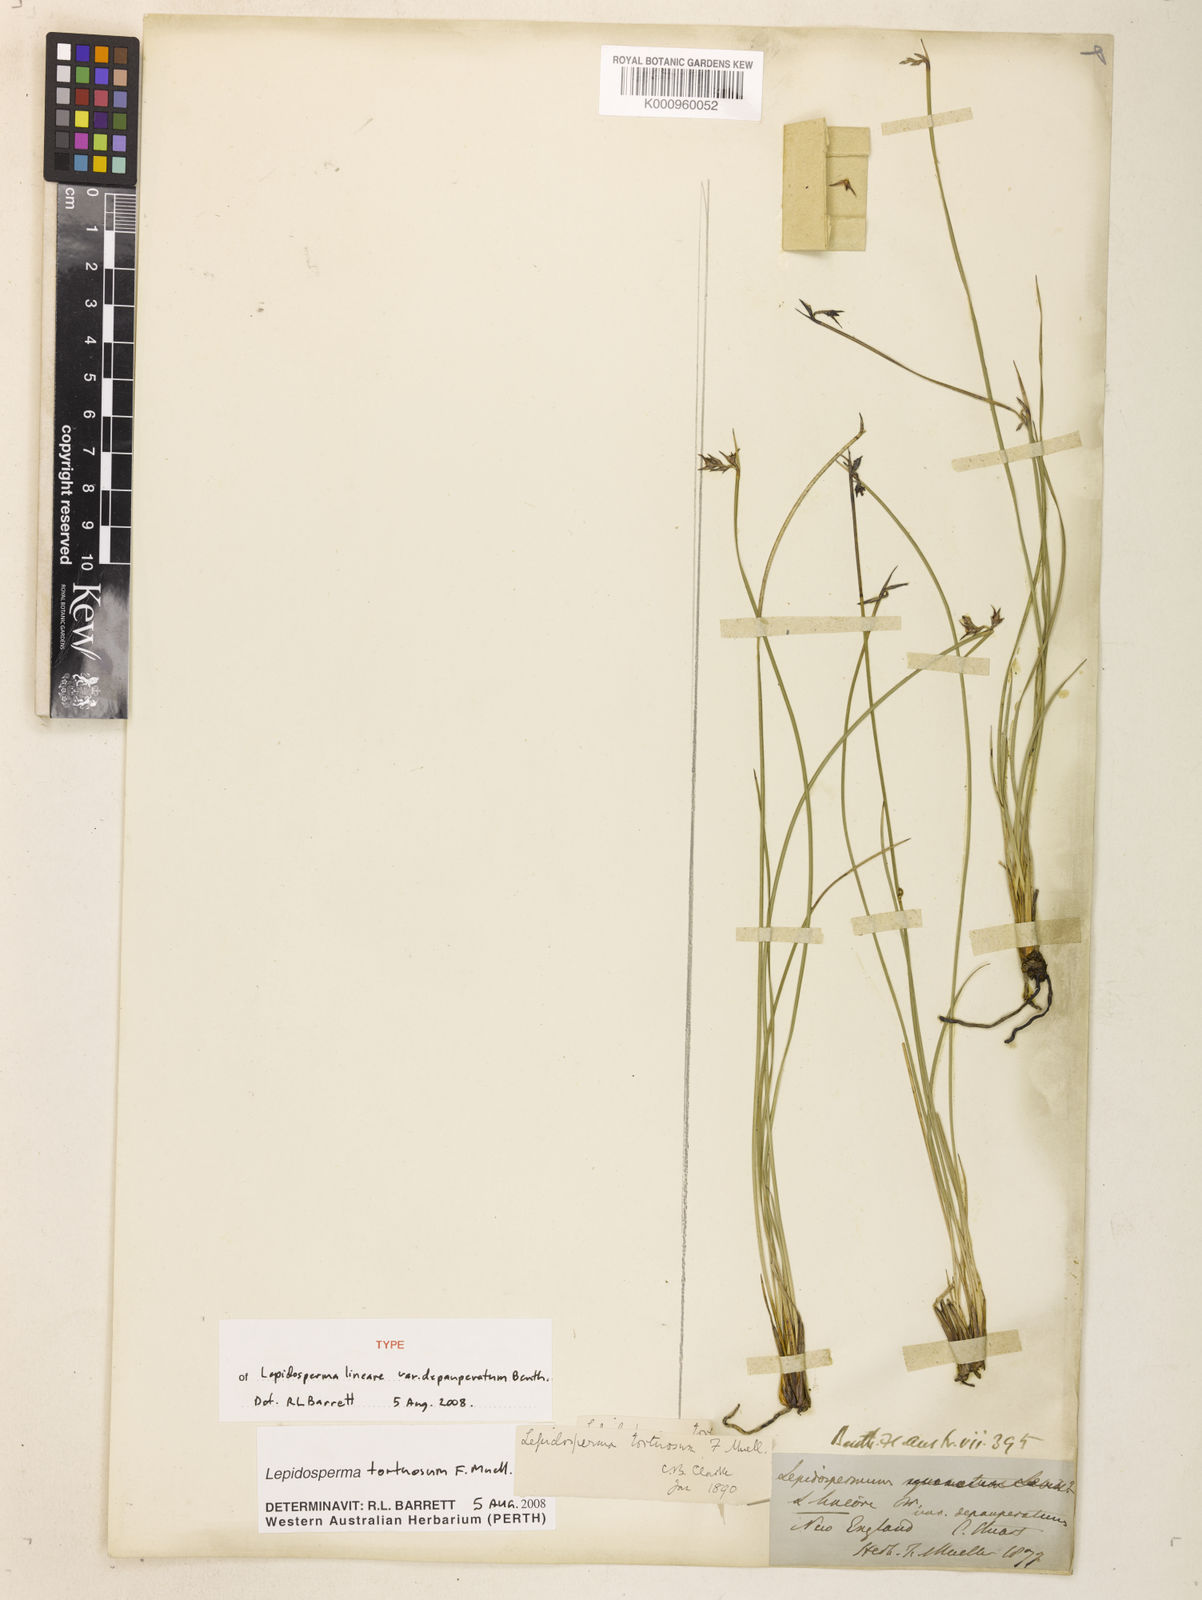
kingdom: Plantae
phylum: Tracheophyta
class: Liliopsida
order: Poales
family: Cyperaceae
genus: Lepidosperma
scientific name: Lepidosperma tortuosum
